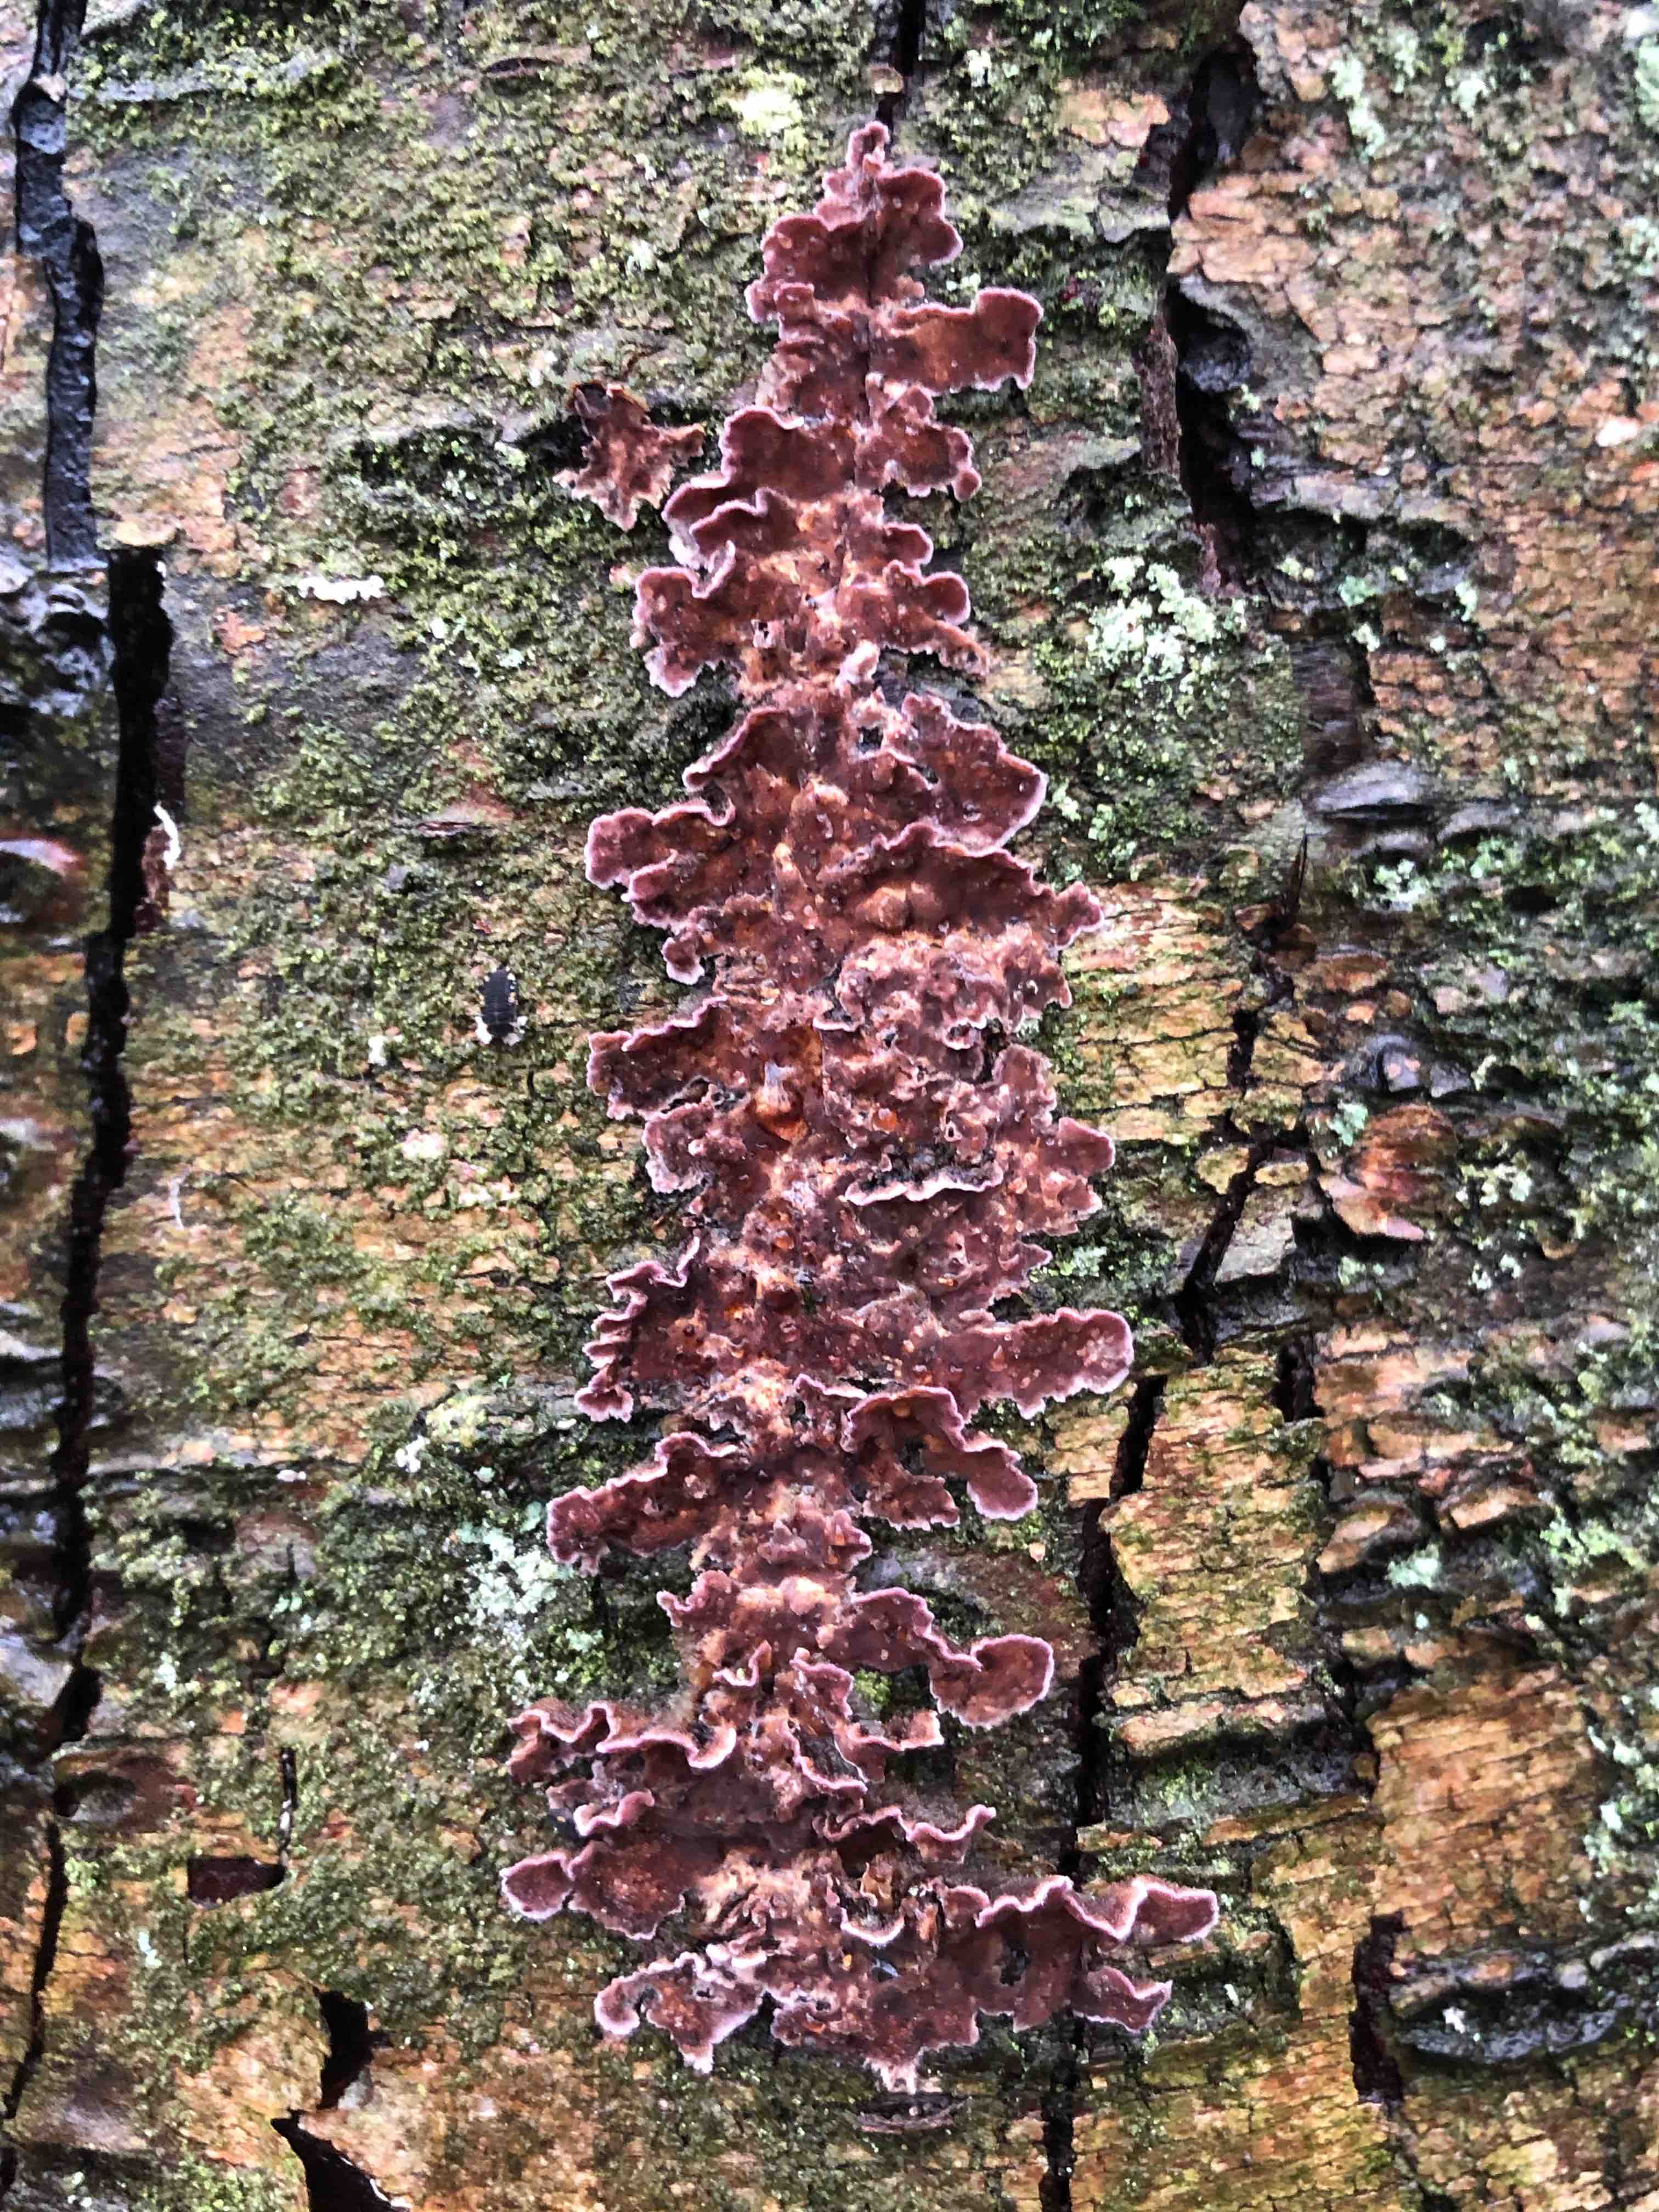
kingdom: Fungi
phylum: Basidiomycota
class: Agaricomycetes
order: Agaricales
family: Cyphellaceae
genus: Chondrostereum
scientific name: Chondrostereum purpureum
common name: purpurlædersvamp
